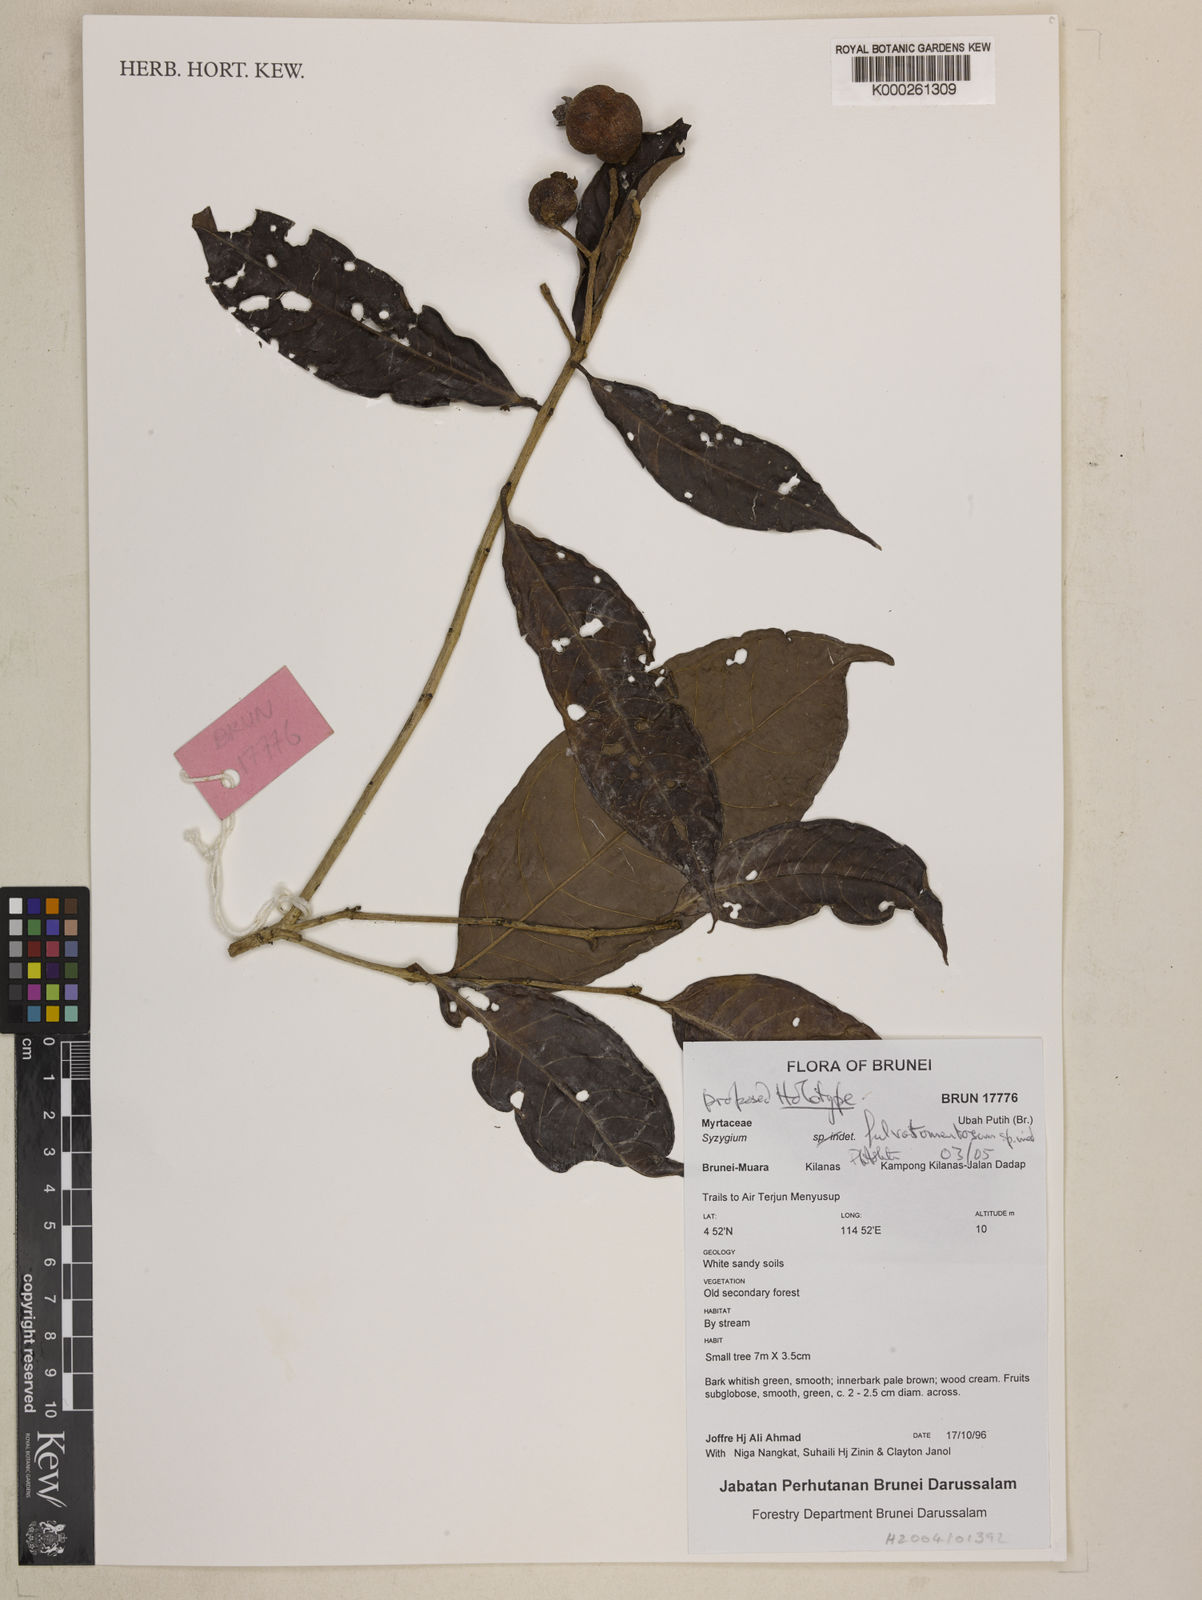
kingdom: Plantae
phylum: Tracheophyta
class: Magnoliopsida
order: Myrtales
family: Myrtaceae
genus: Syzygium
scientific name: Syzygium
